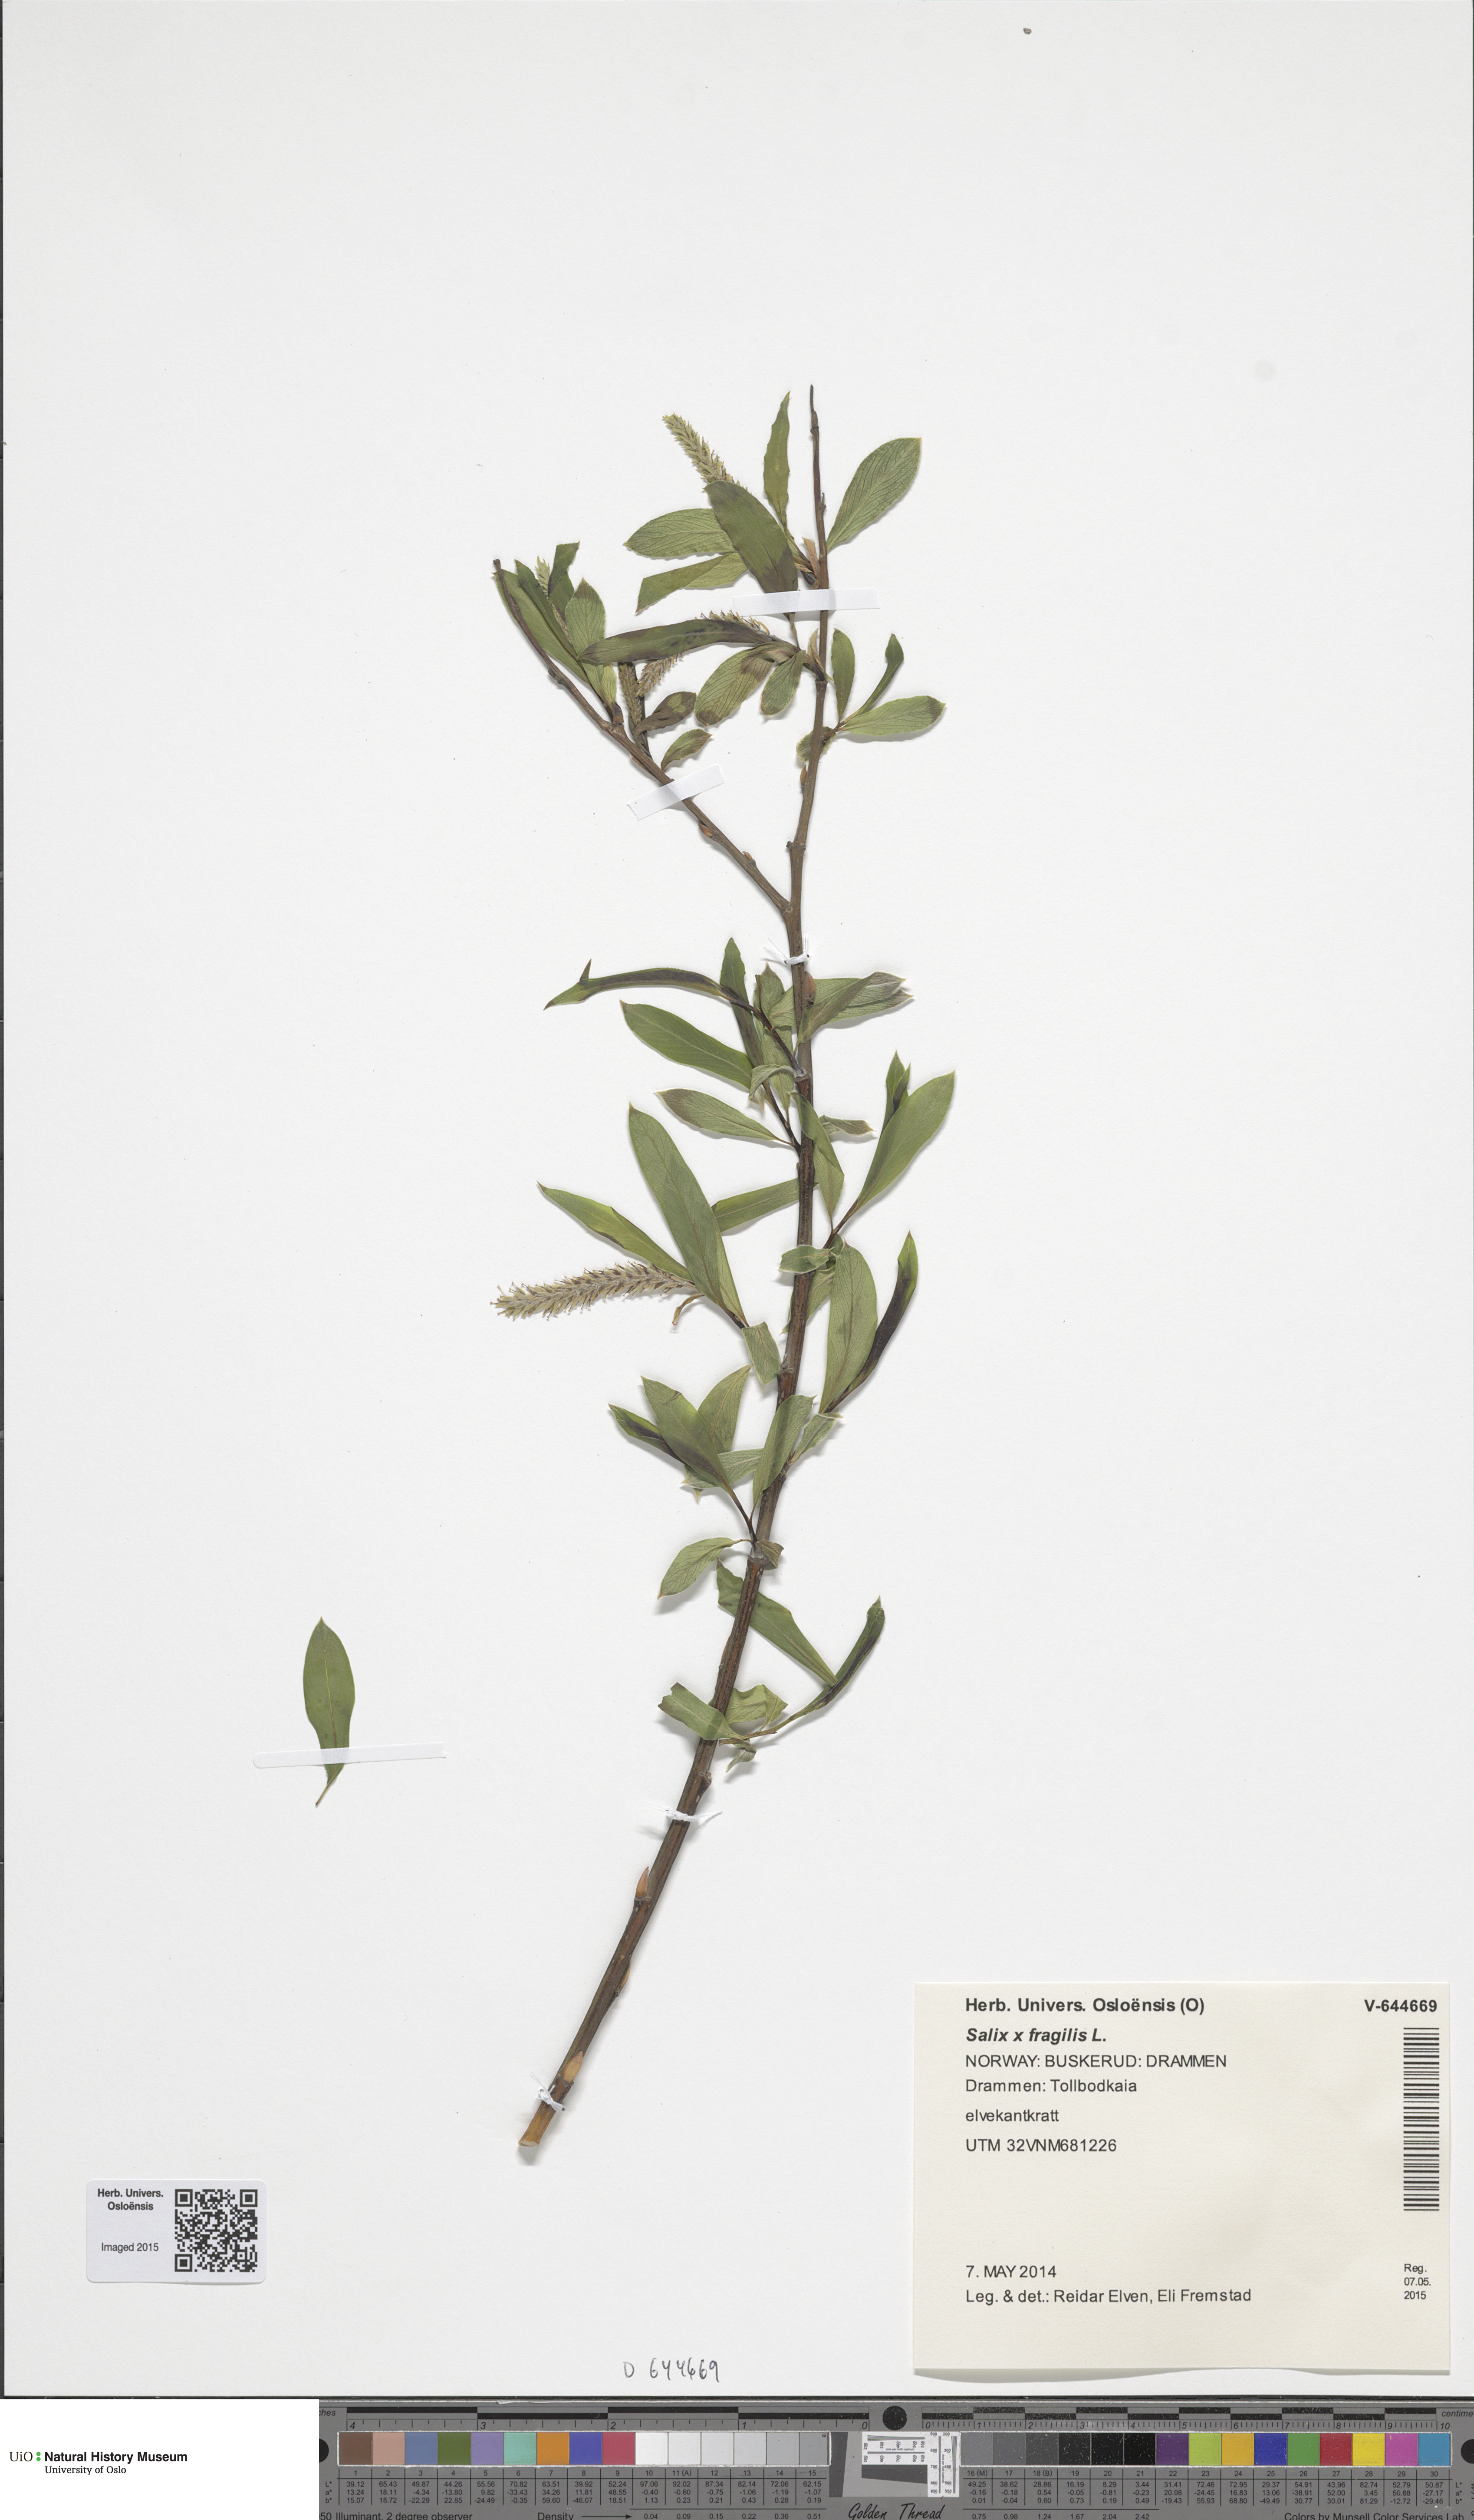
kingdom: Plantae
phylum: Tracheophyta
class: Magnoliopsida
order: Malpighiales
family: Salicaceae
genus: Salix
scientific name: Salix fragilis
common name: Crack willow
